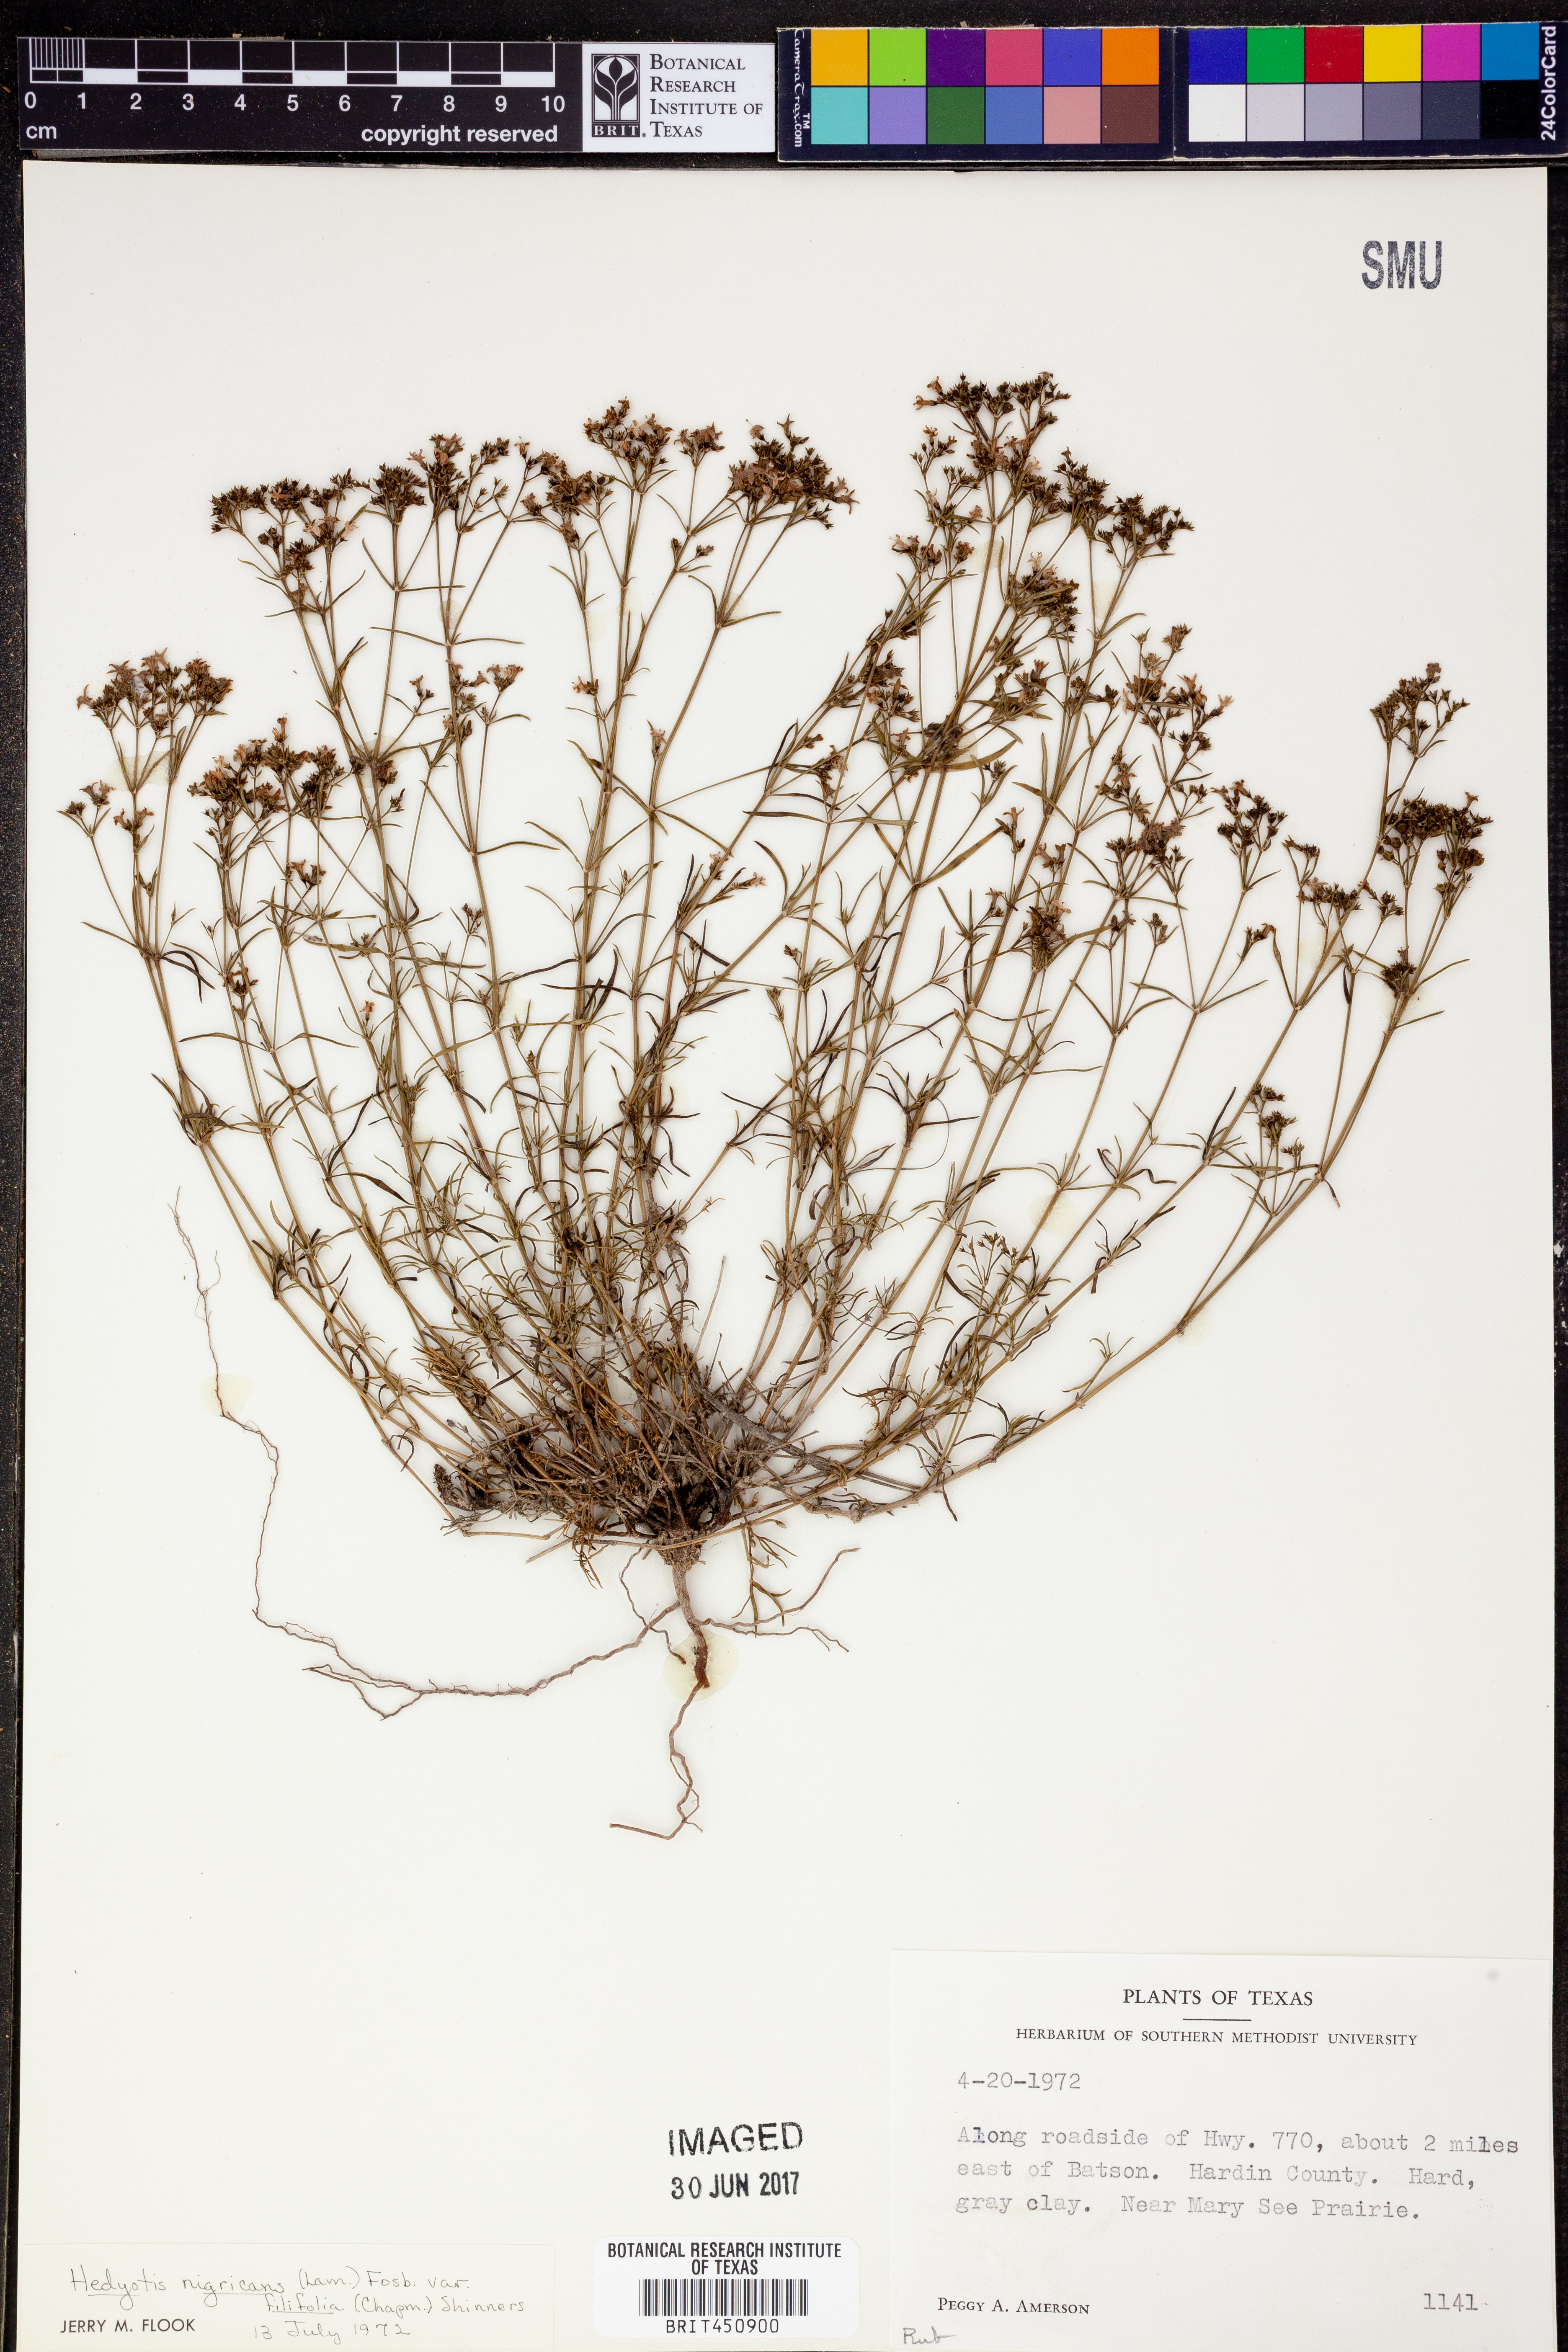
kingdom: Plantae
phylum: Tracheophyta
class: Magnoliopsida
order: Gentianales
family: Rubiaceae
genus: Stenaria
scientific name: Stenaria nigricans
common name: Diamondflowers
